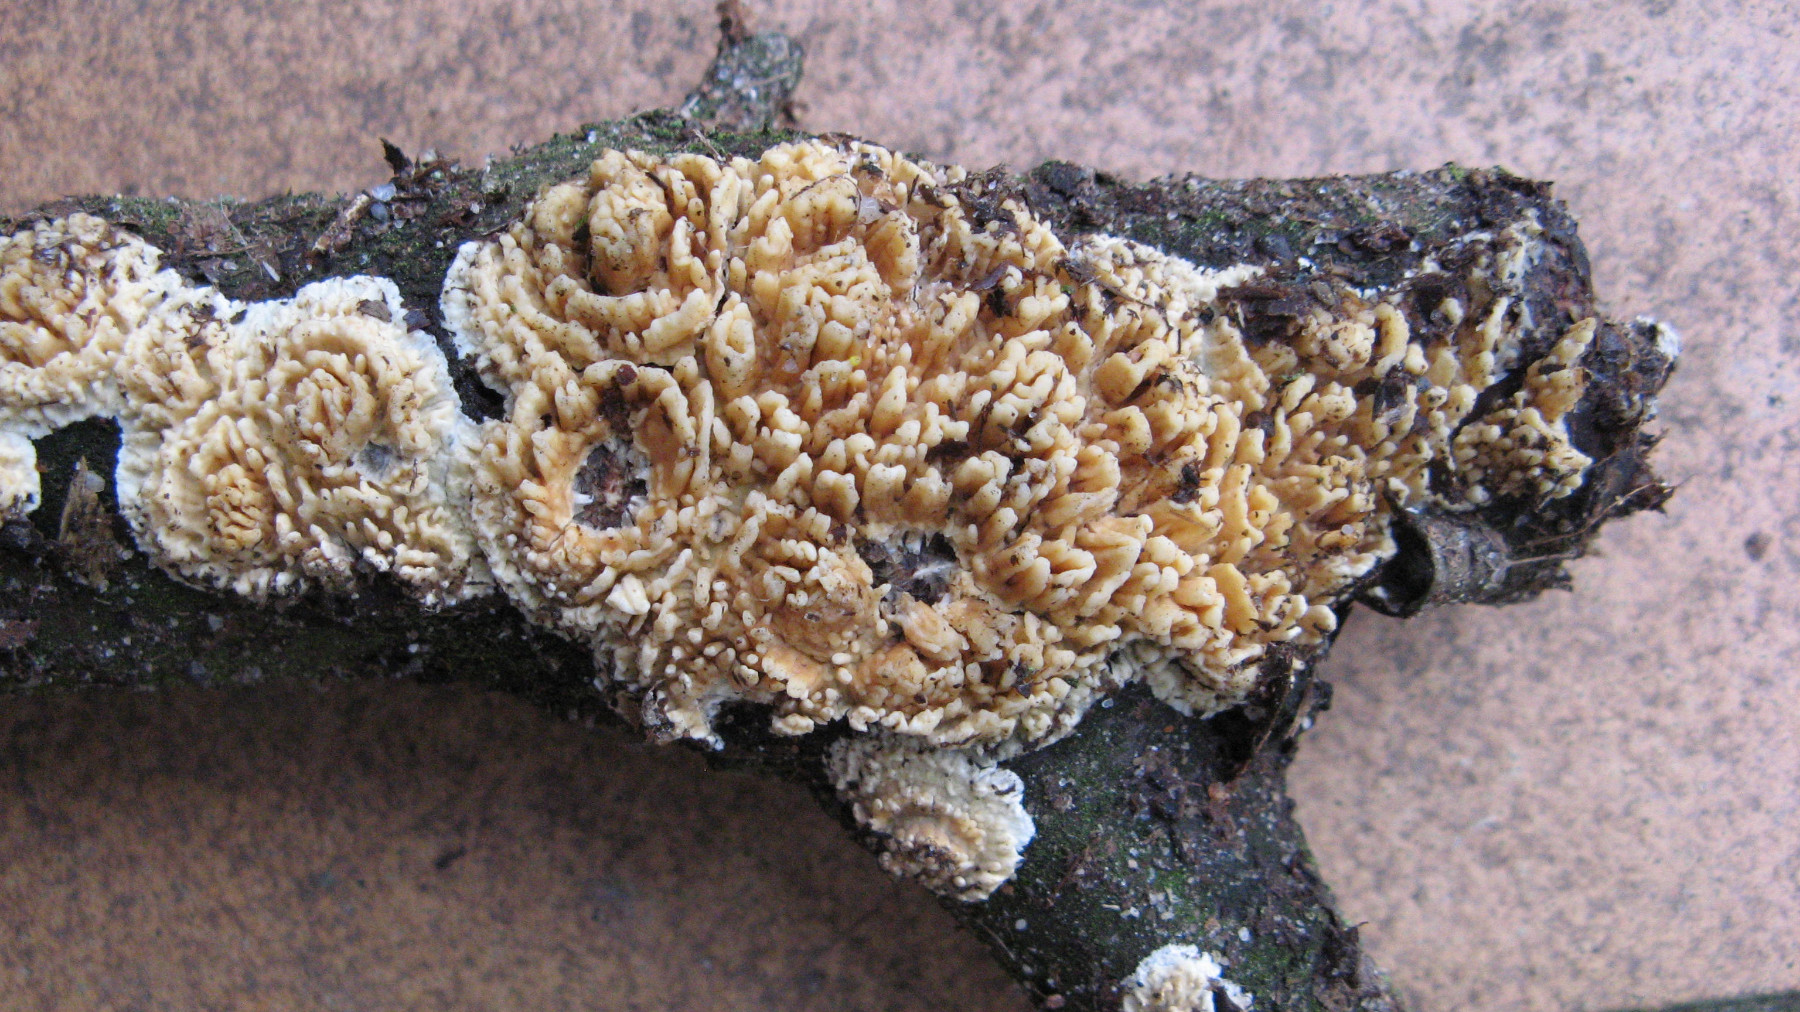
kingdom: Fungi
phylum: Basidiomycota
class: Agaricomycetes
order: Hymenochaetales
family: Schizoporaceae
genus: Xylodon
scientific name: Xylodon radula
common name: grovtandet kalkskind
